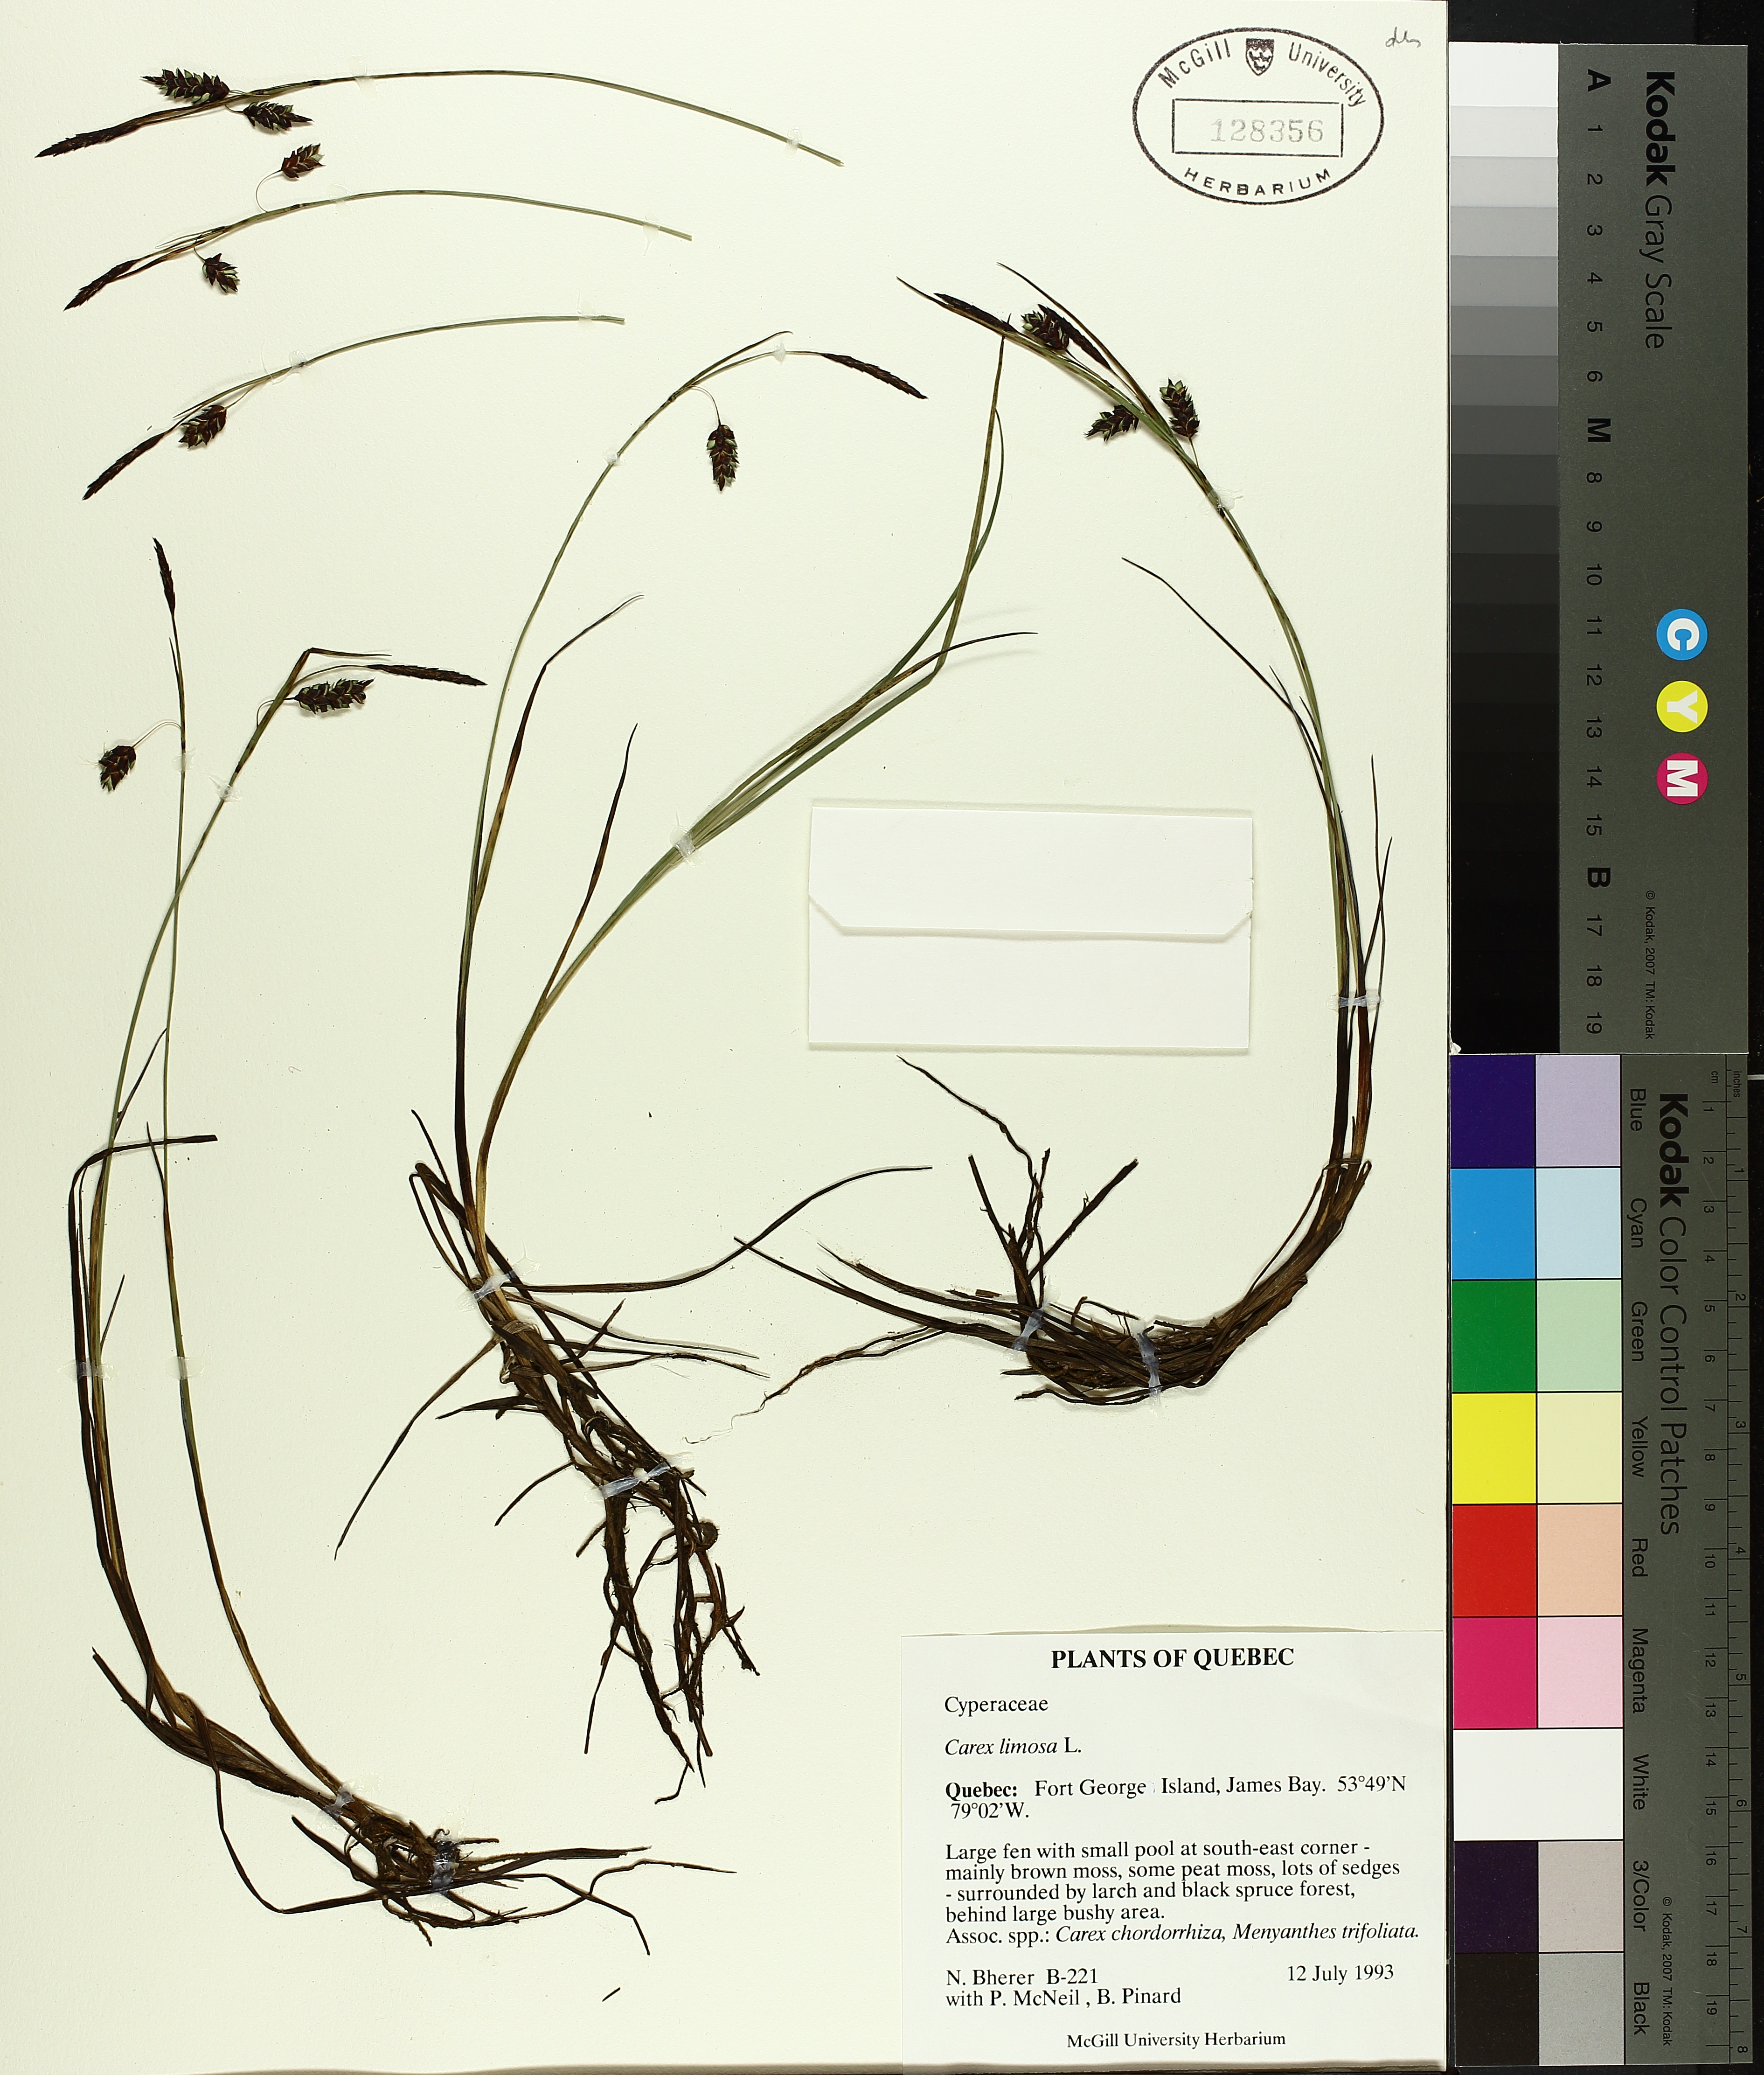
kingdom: Plantae
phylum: Tracheophyta
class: Liliopsida
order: Poales
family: Cyperaceae
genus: Carex
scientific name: Carex limosa
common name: Bog sedge
